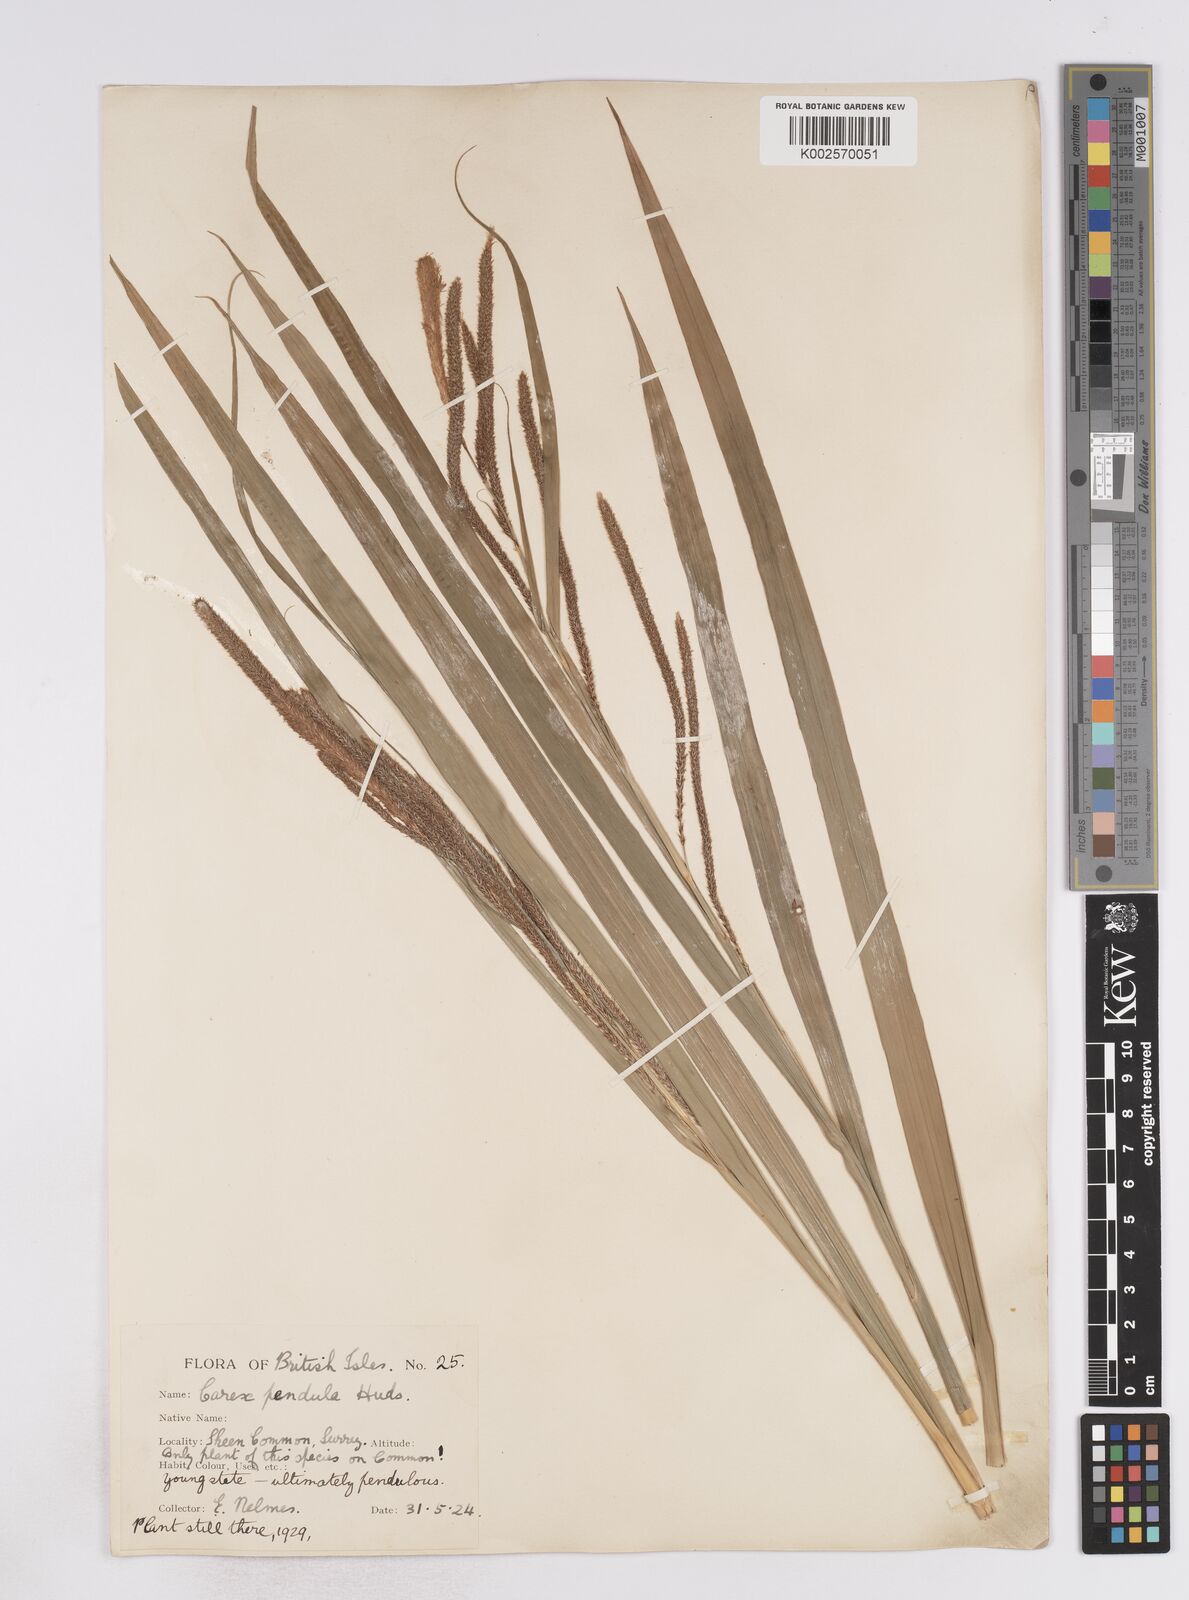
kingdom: Plantae
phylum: Tracheophyta
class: Liliopsida
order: Poales
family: Cyperaceae
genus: Carex
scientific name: Carex pendula
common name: Pendulous sedge
